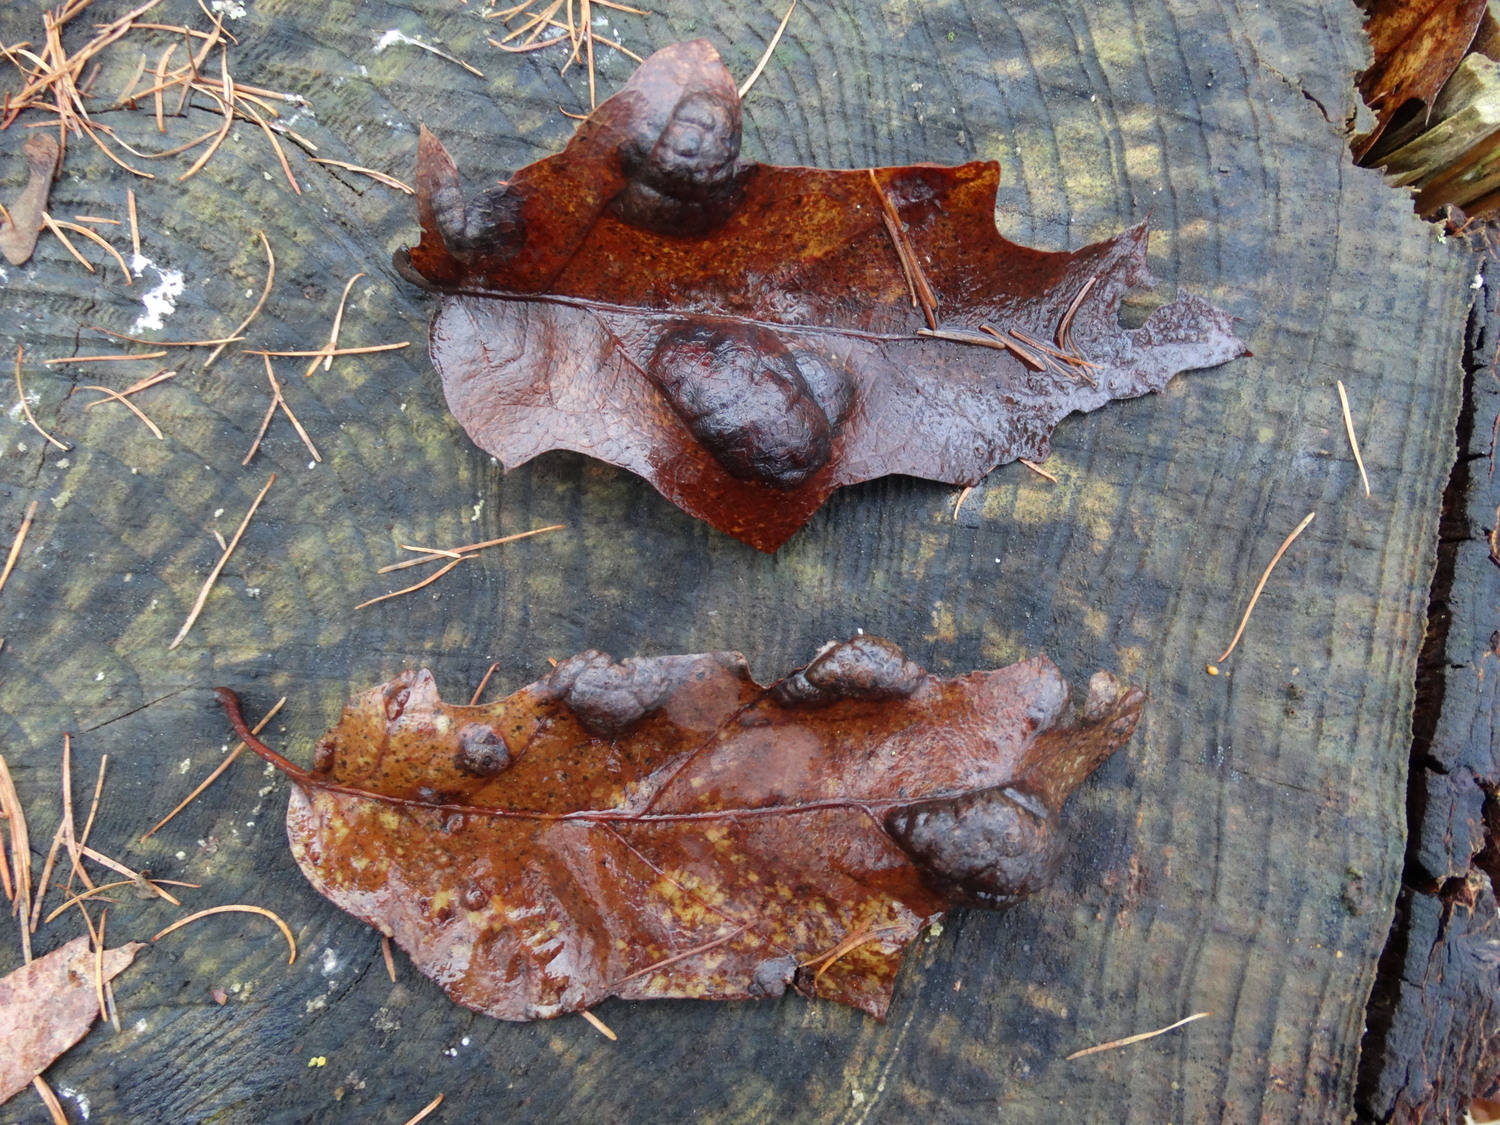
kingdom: Fungi
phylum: Ascomycota
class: Taphrinomycetes
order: Taphrinales
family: Taphrinaceae
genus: Taphrina
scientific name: Taphrina caerulescens
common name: Oak leaf blister
